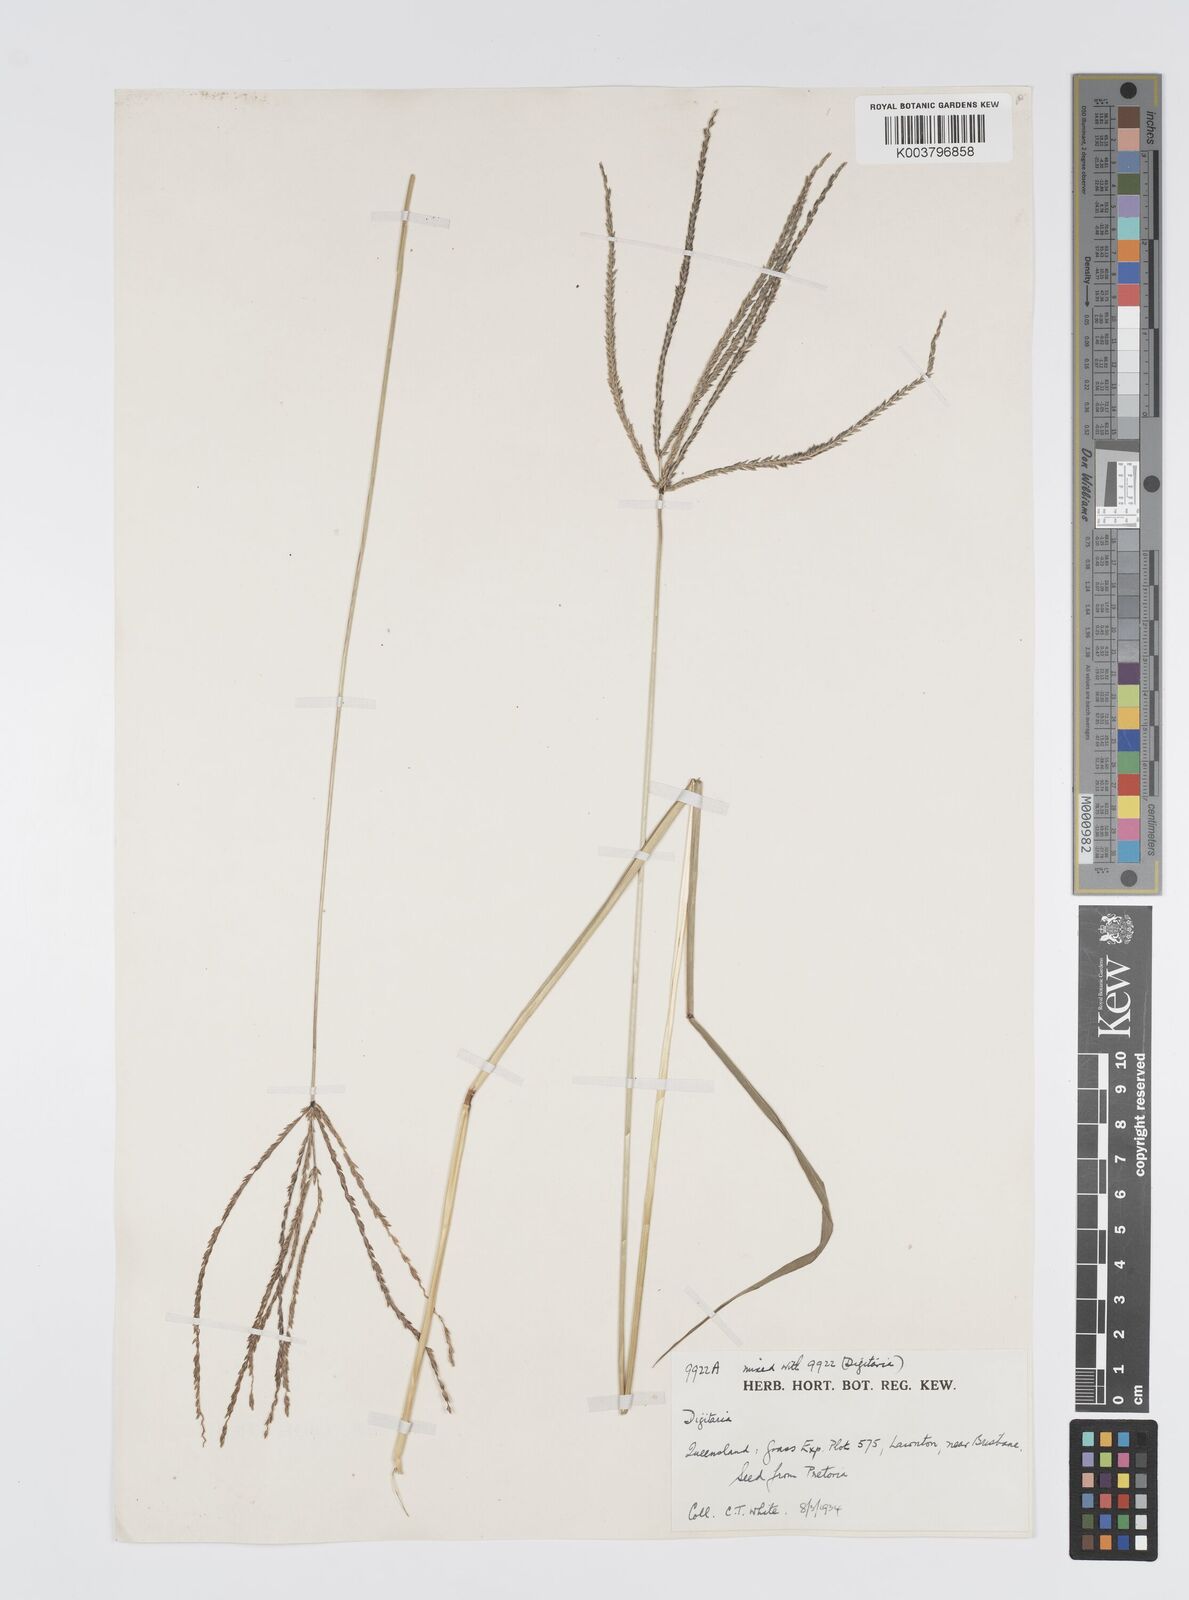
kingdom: Plantae
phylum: Tracheophyta
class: Liliopsida
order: Poales
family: Poaceae
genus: Digitaria
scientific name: Digitaria milanjiana
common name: Madagascar crabgrass
